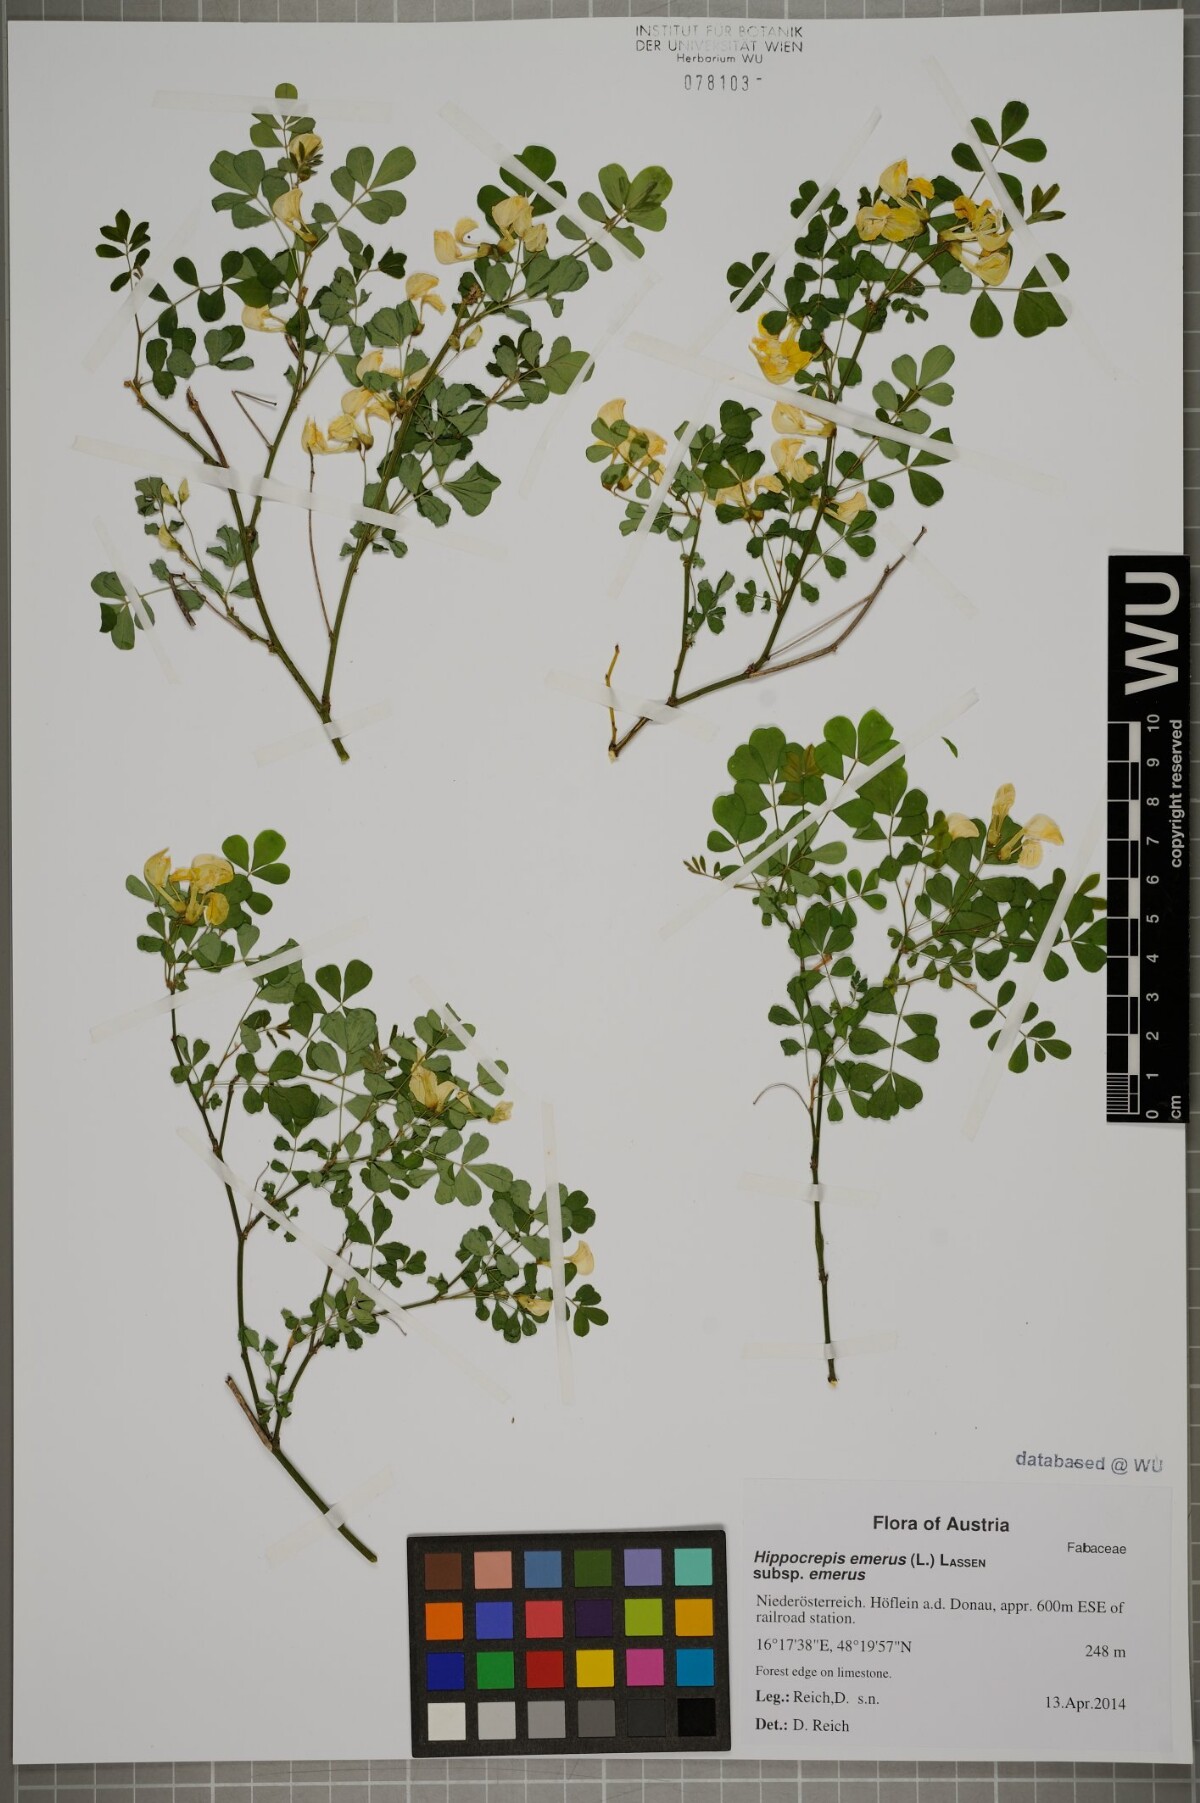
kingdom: Plantae
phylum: Tracheophyta
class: Magnoliopsida
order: Fabales
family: Fabaceae
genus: Hippocrepis
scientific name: Hippocrepis emerus
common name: Scorpion senna
